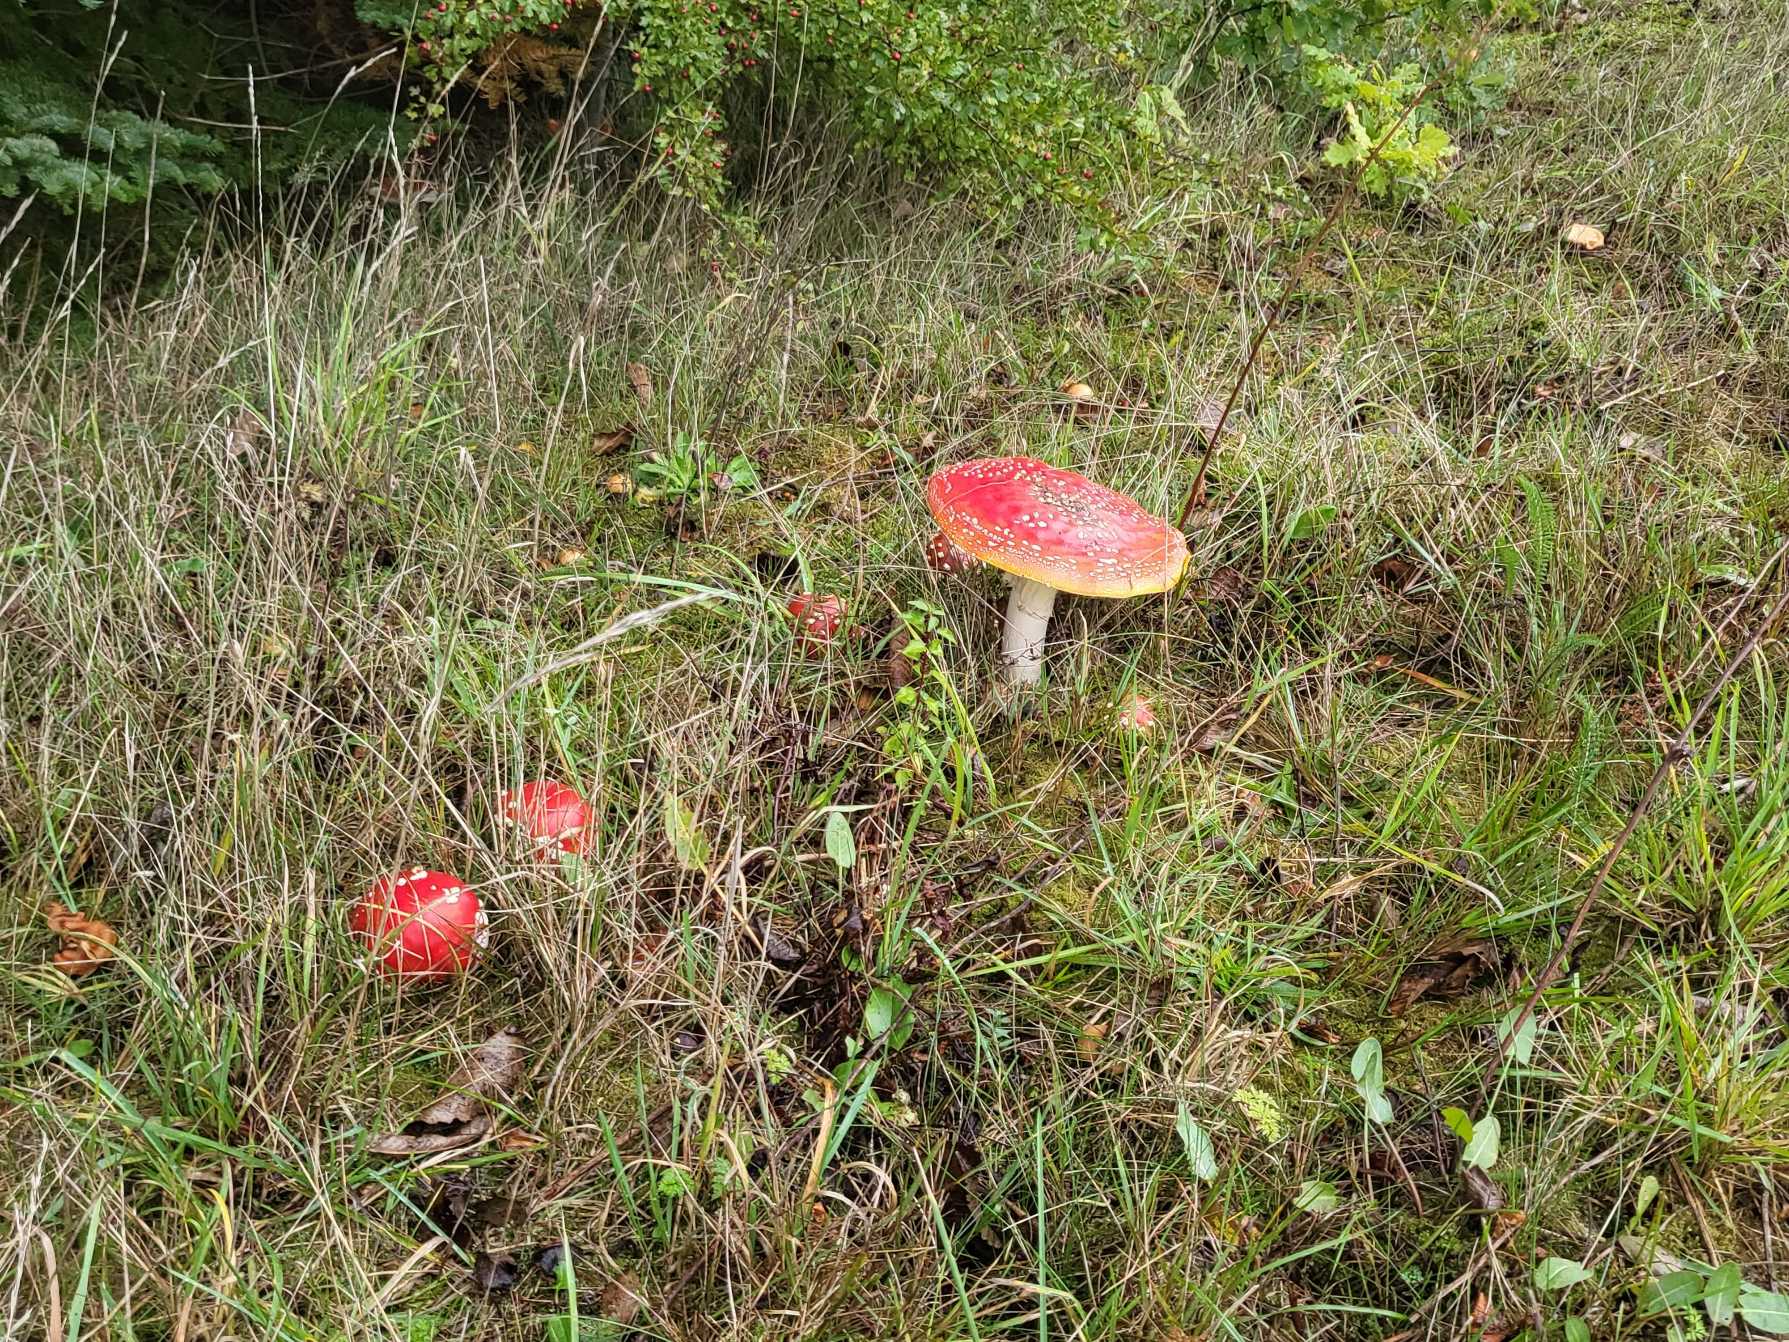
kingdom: Fungi
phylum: Basidiomycota
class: Agaricomycetes
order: Agaricales
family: Amanitaceae
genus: Amanita
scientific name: Amanita muscaria
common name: Rød fluesvamp
